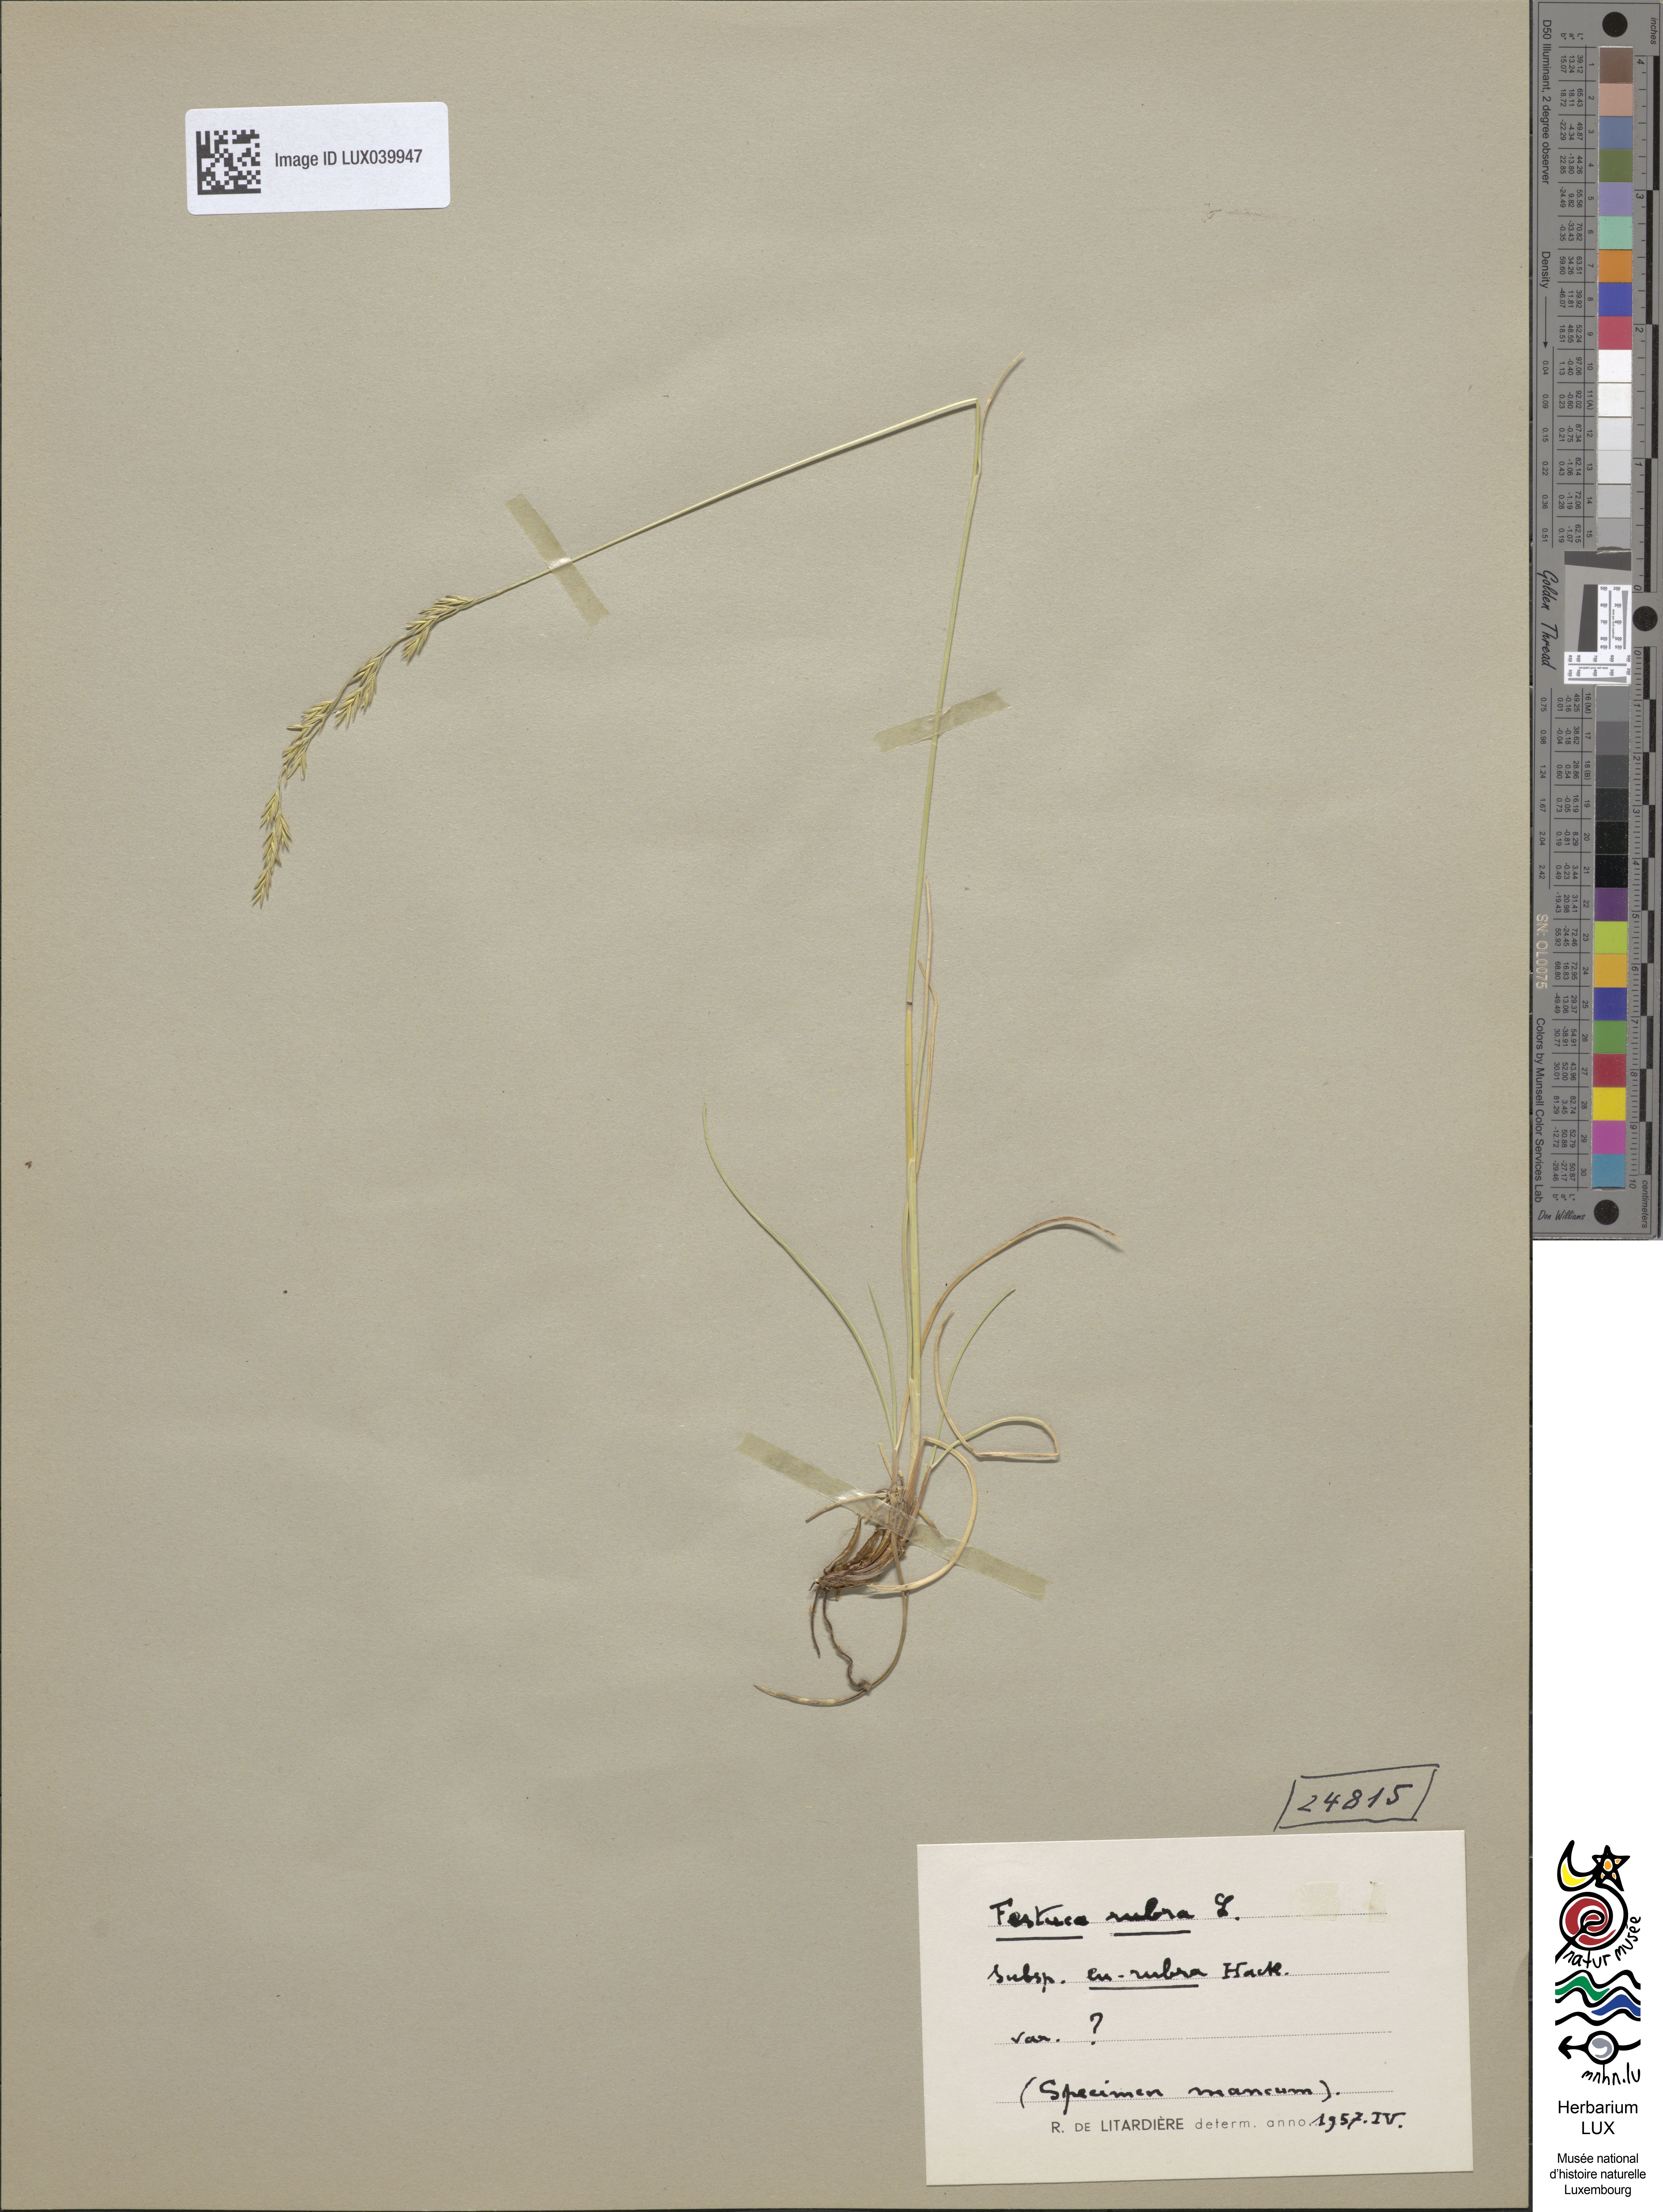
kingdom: Plantae
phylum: Tracheophyta
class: Liliopsida
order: Poales
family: Poaceae
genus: Festuca
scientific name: Festuca rubra
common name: Red fescue
